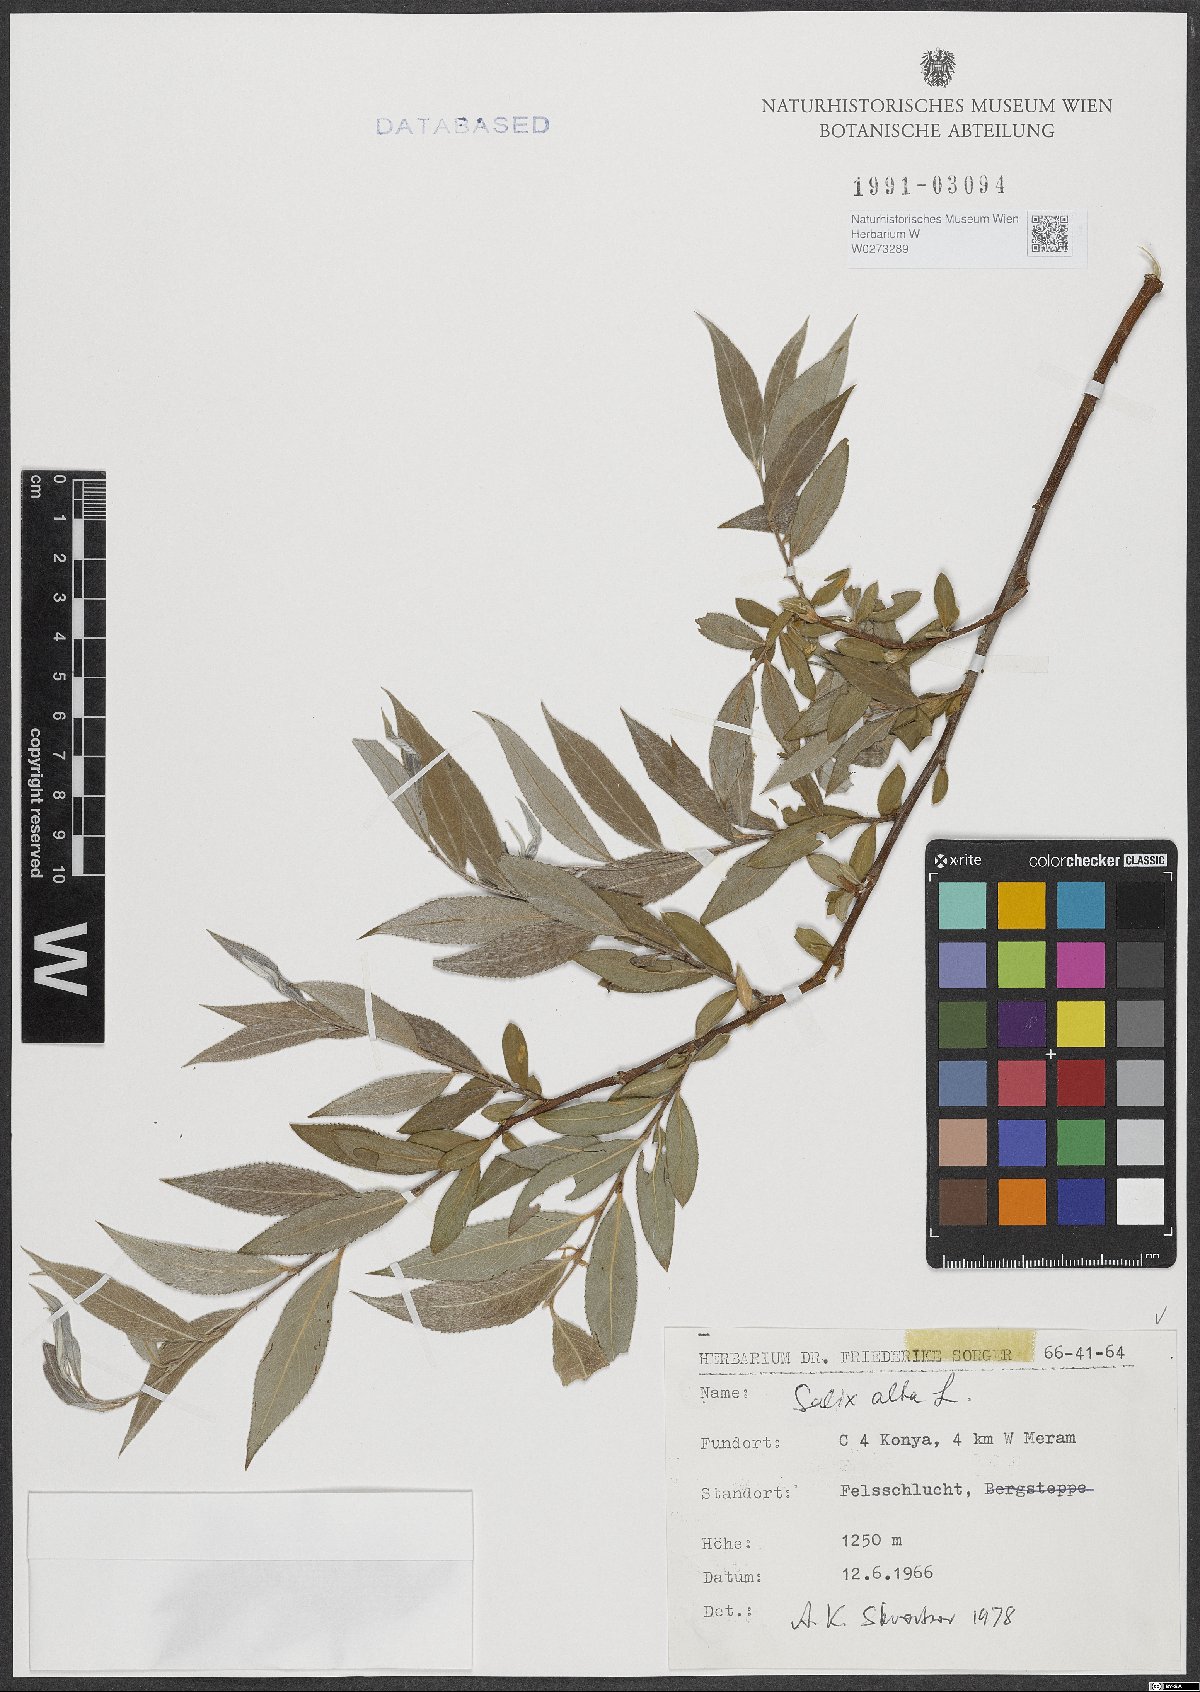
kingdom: Plantae
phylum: Tracheophyta
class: Magnoliopsida
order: Malpighiales
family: Salicaceae
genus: Salix
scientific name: Salix alba
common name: White willow
